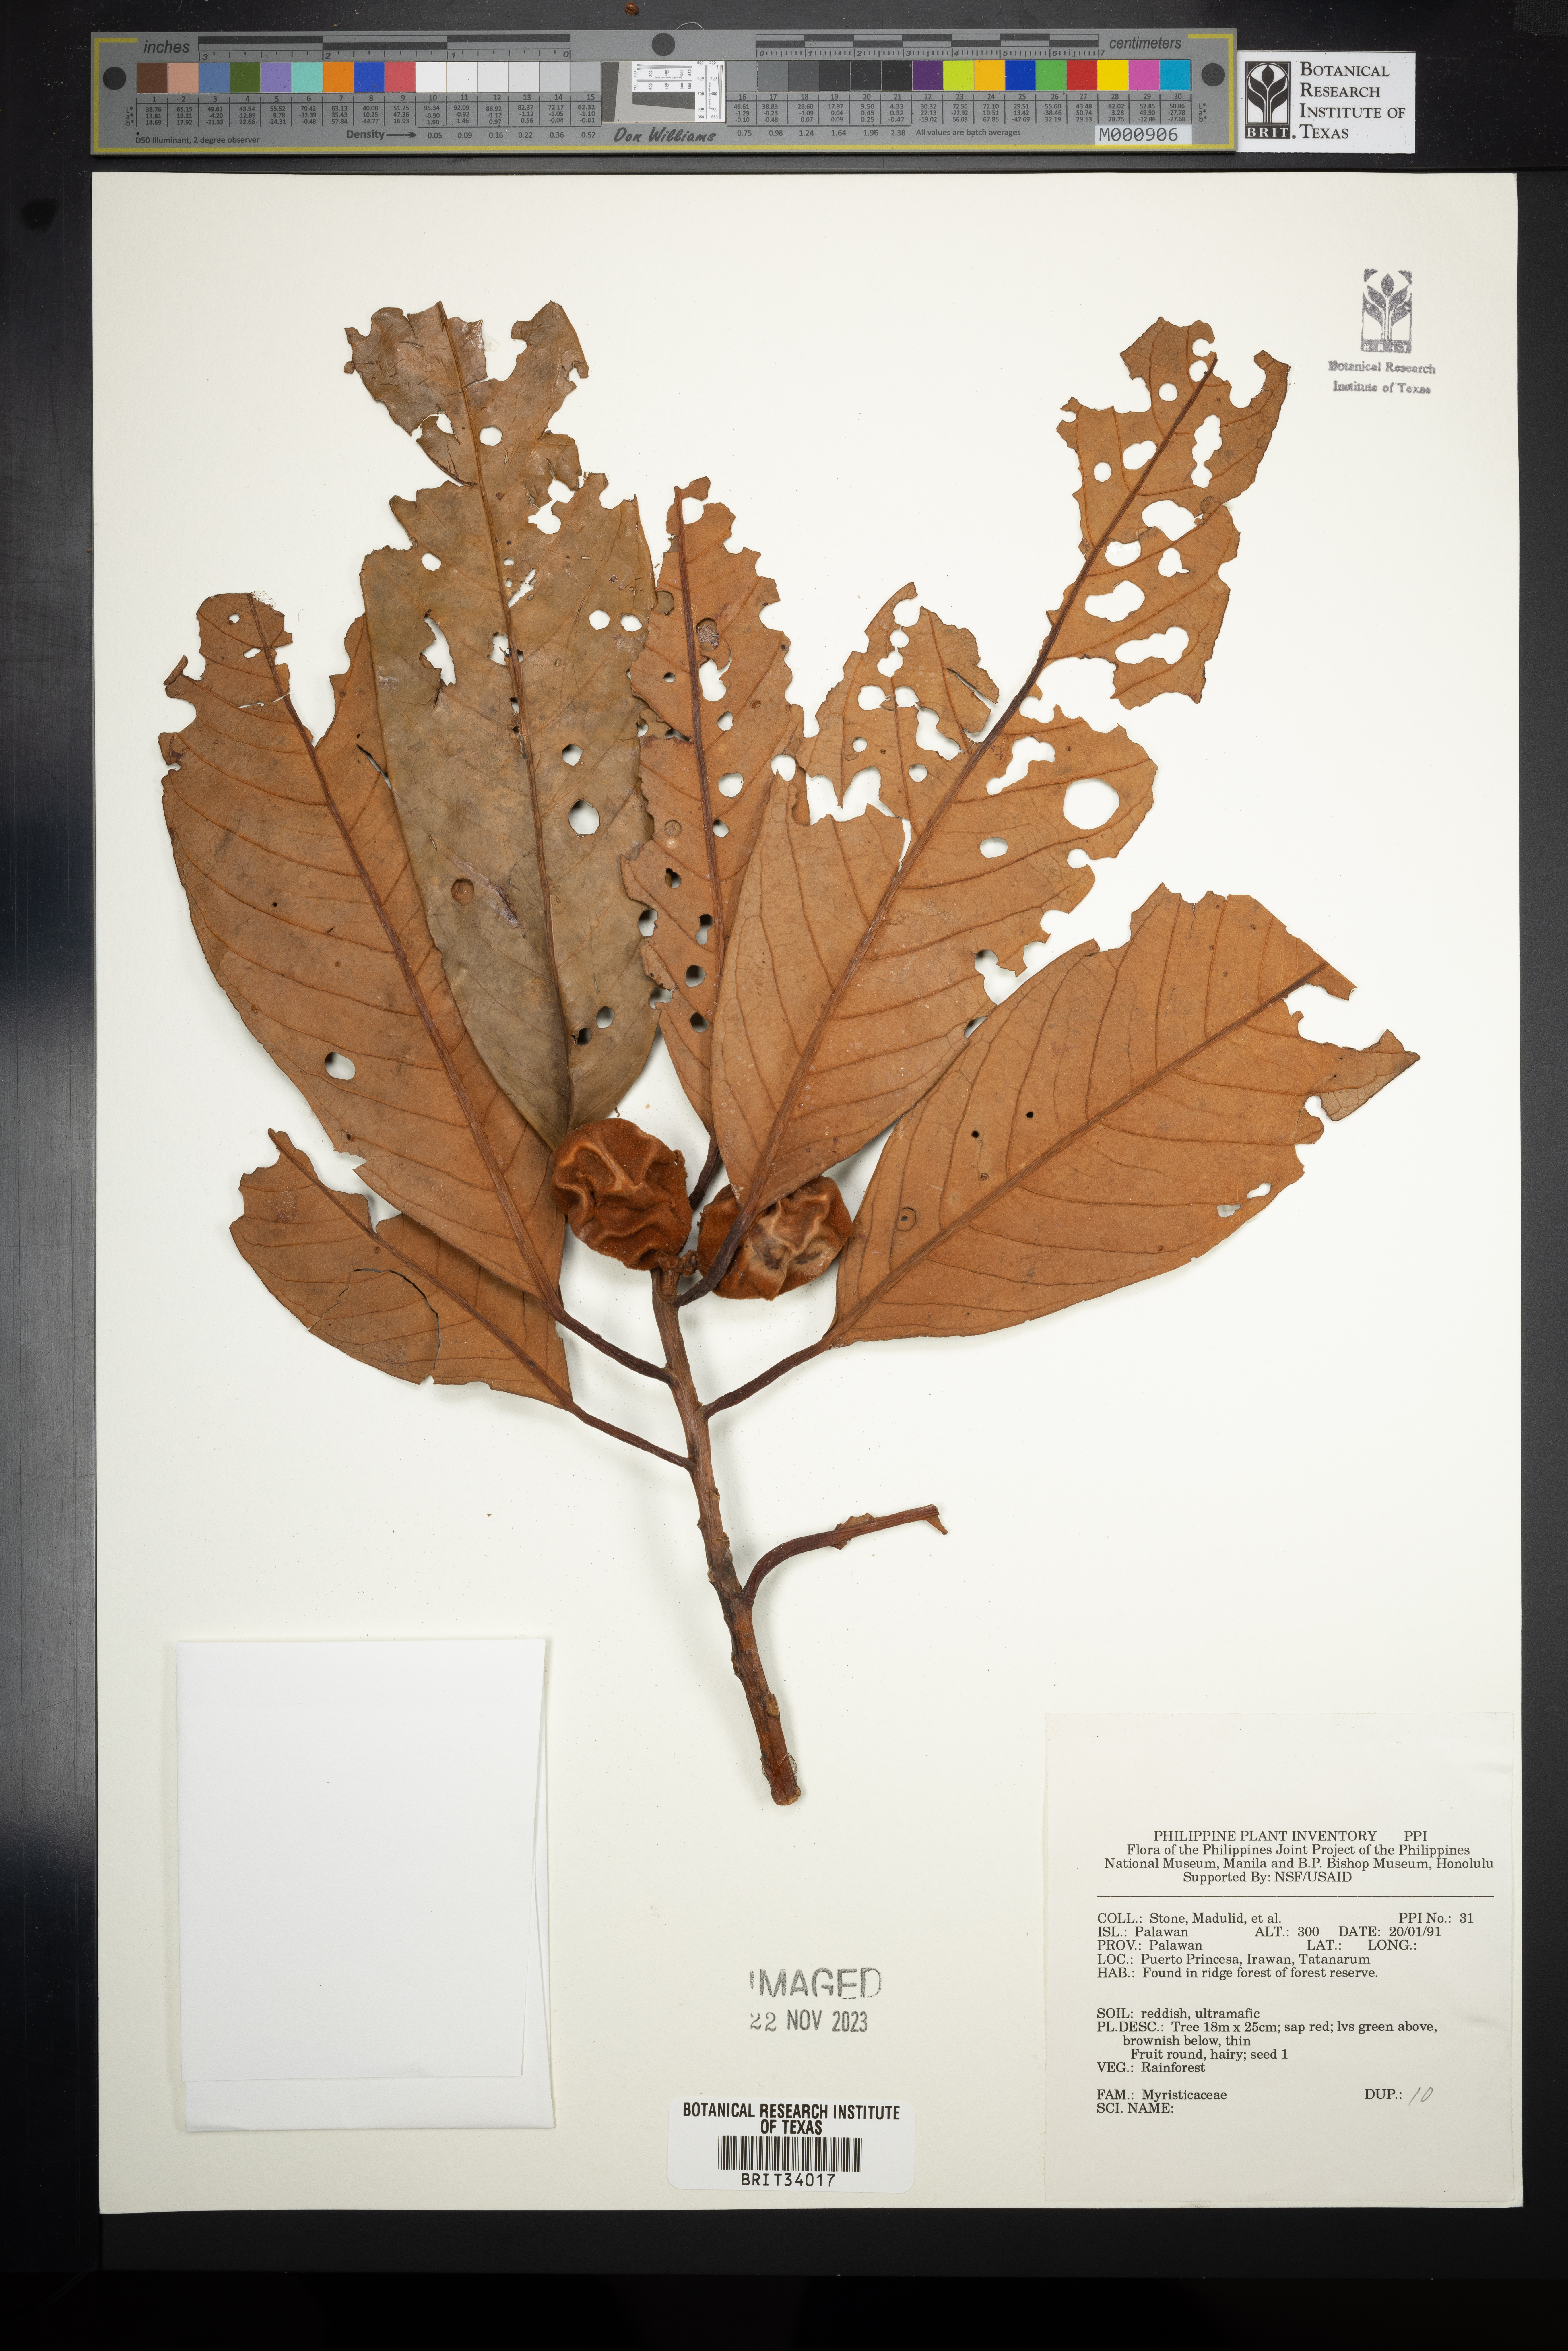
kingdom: Plantae
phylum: Tracheophyta
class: Magnoliopsida
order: Magnoliales
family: Myristicaceae
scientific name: Myristicaceae
